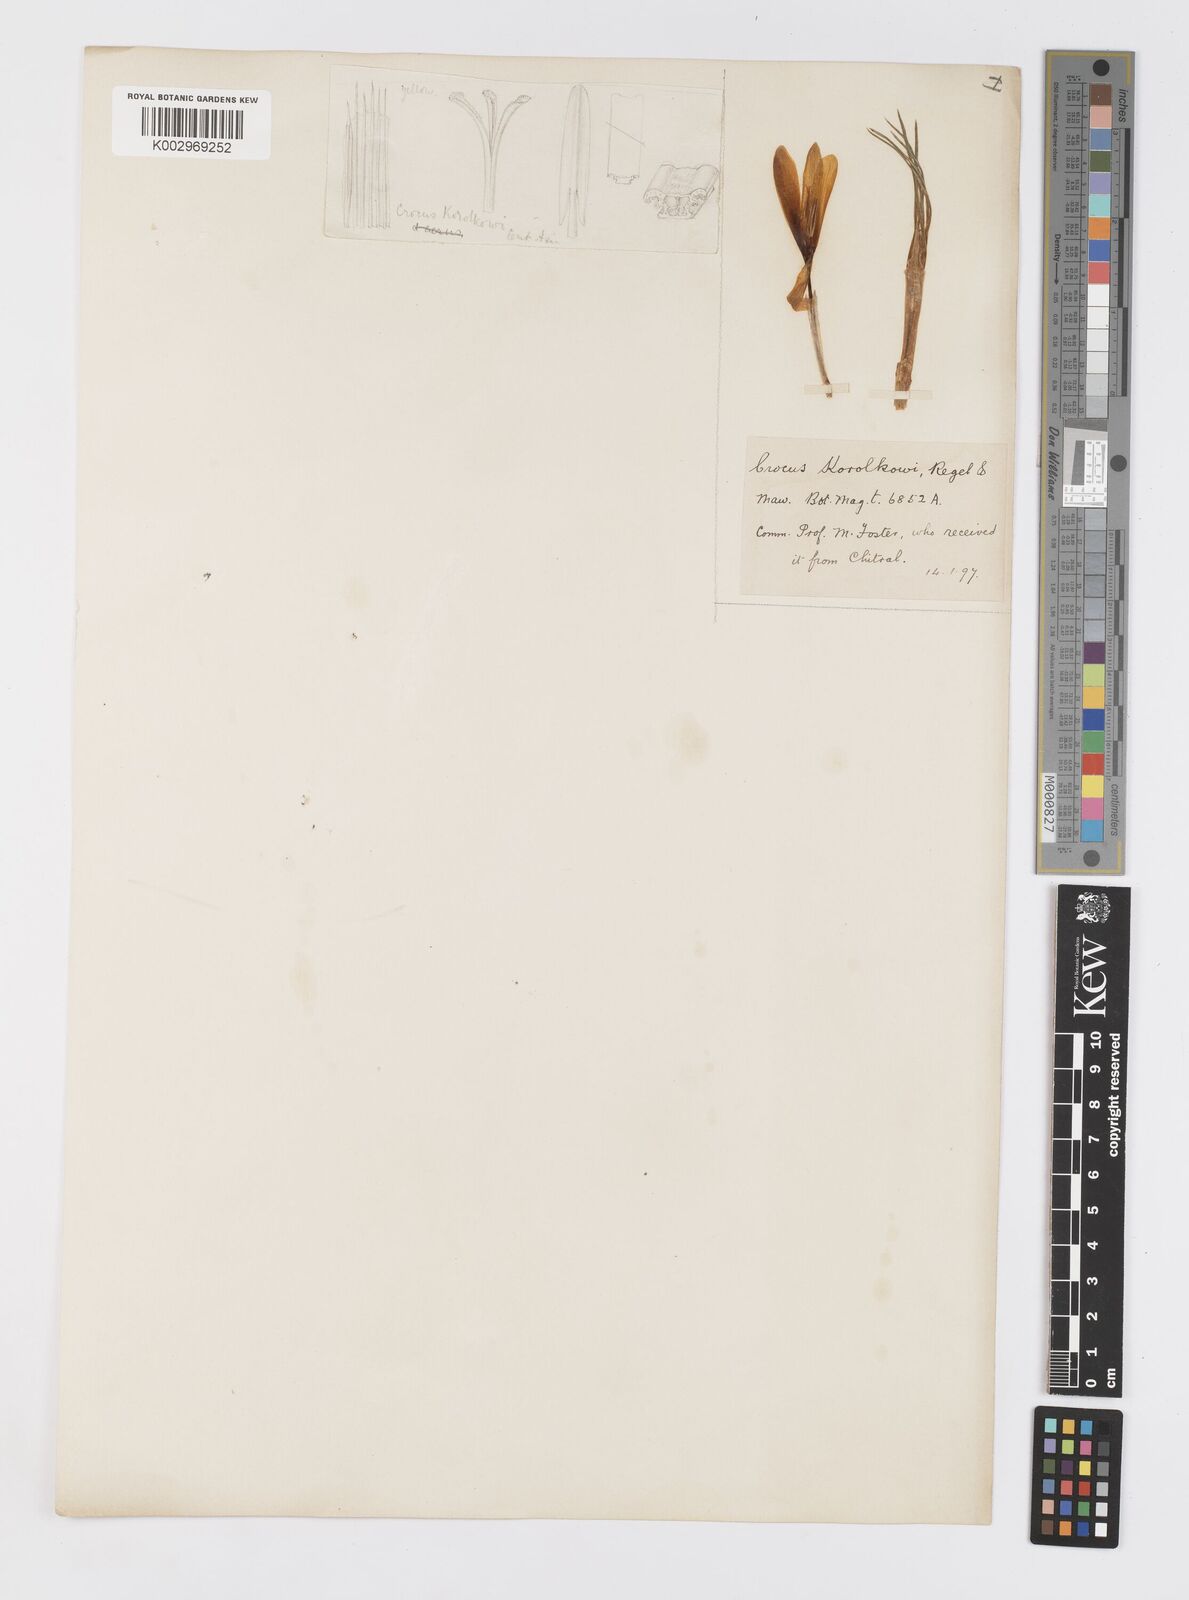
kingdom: Plantae
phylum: Tracheophyta
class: Liliopsida
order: Asparagales
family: Iridaceae
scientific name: Iridaceae
